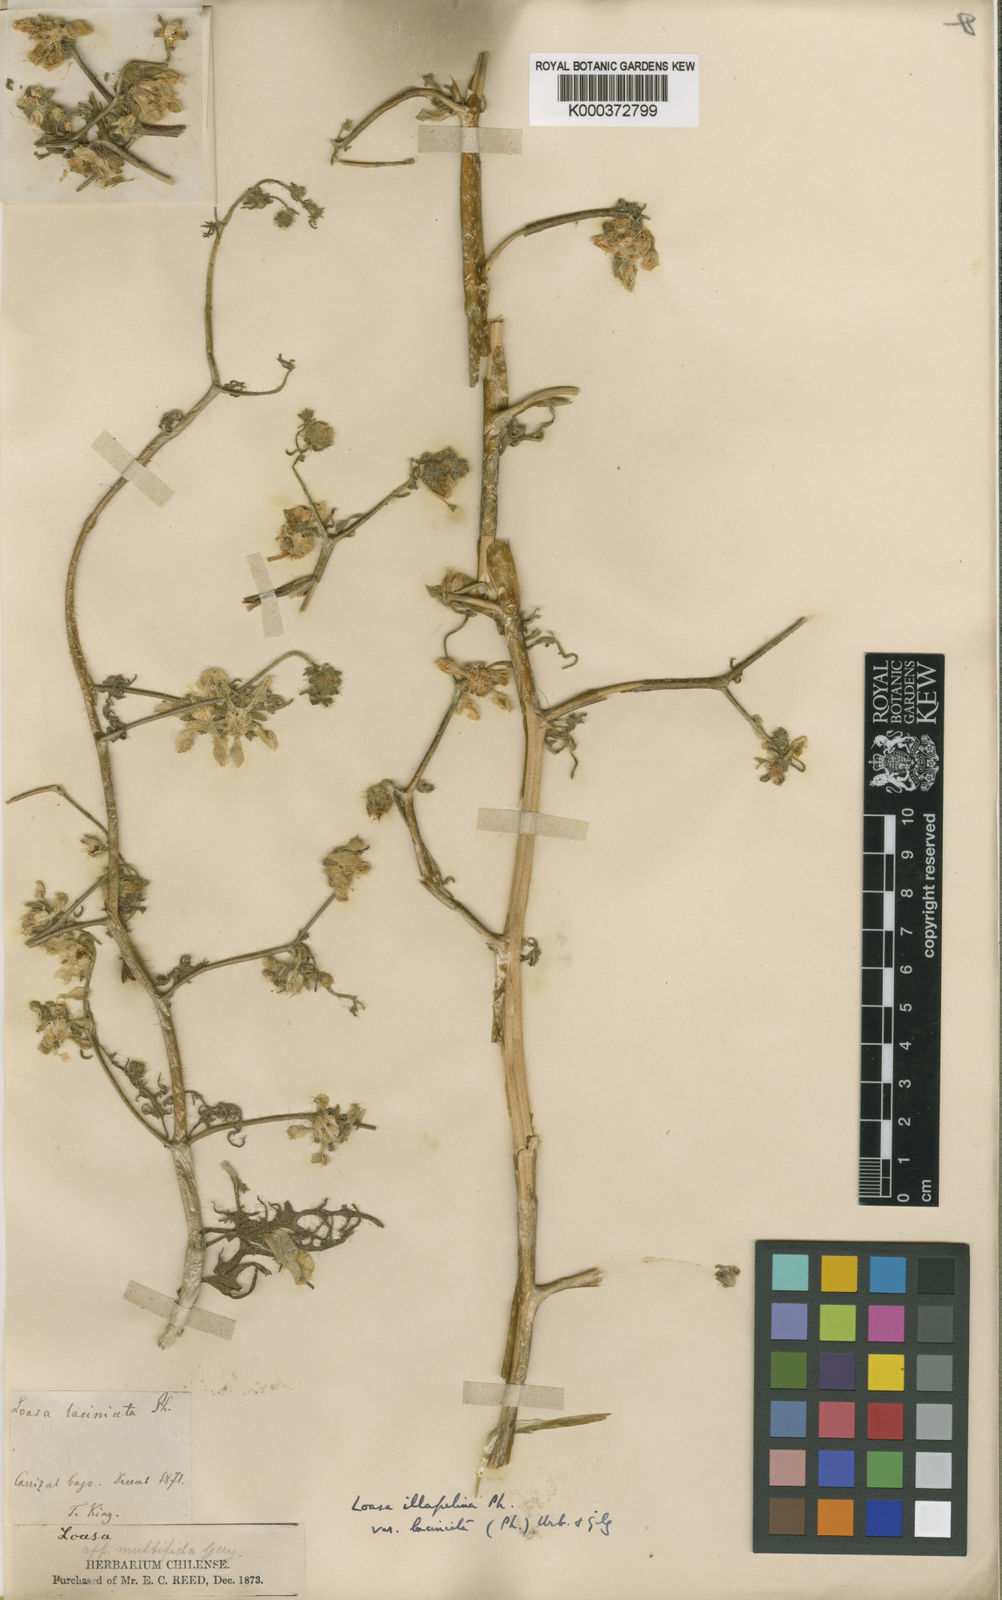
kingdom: Plantae
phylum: Tracheophyta
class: Magnoliopsida
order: Cornales
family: Loasaceae
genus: Loasa
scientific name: Loasa illapelina
